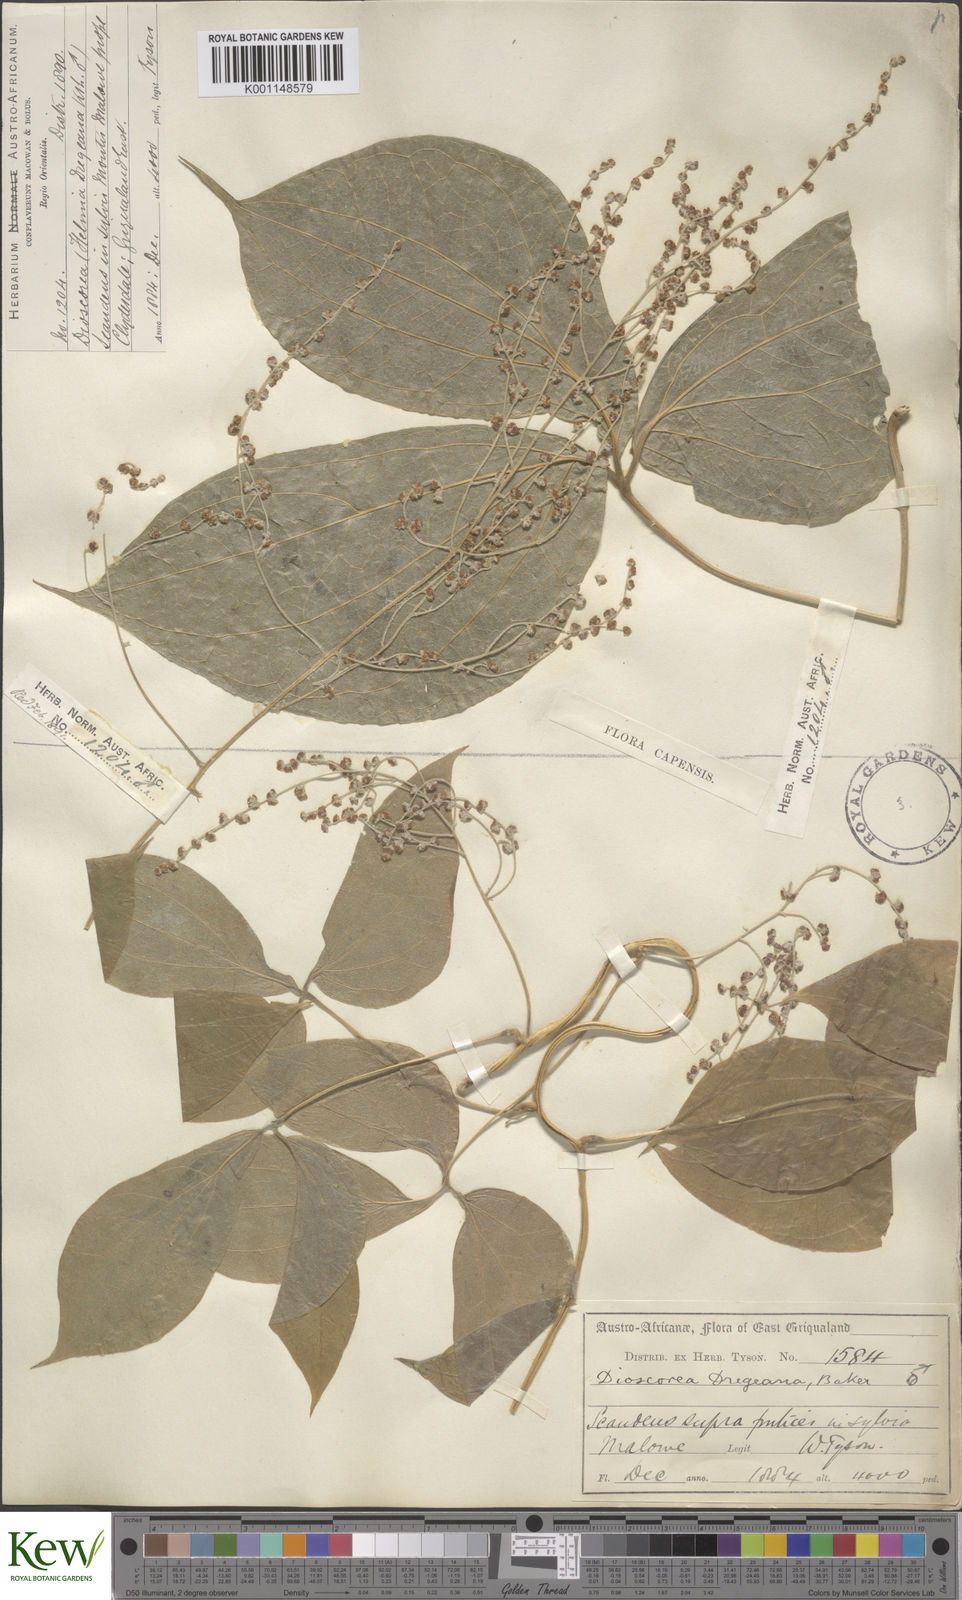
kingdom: Plantae
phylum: Tracheophyta
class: Liliopsida
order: Dioscoreales
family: Dioscoreaceae
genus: Dioscorea
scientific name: Dioscorea dregeana
